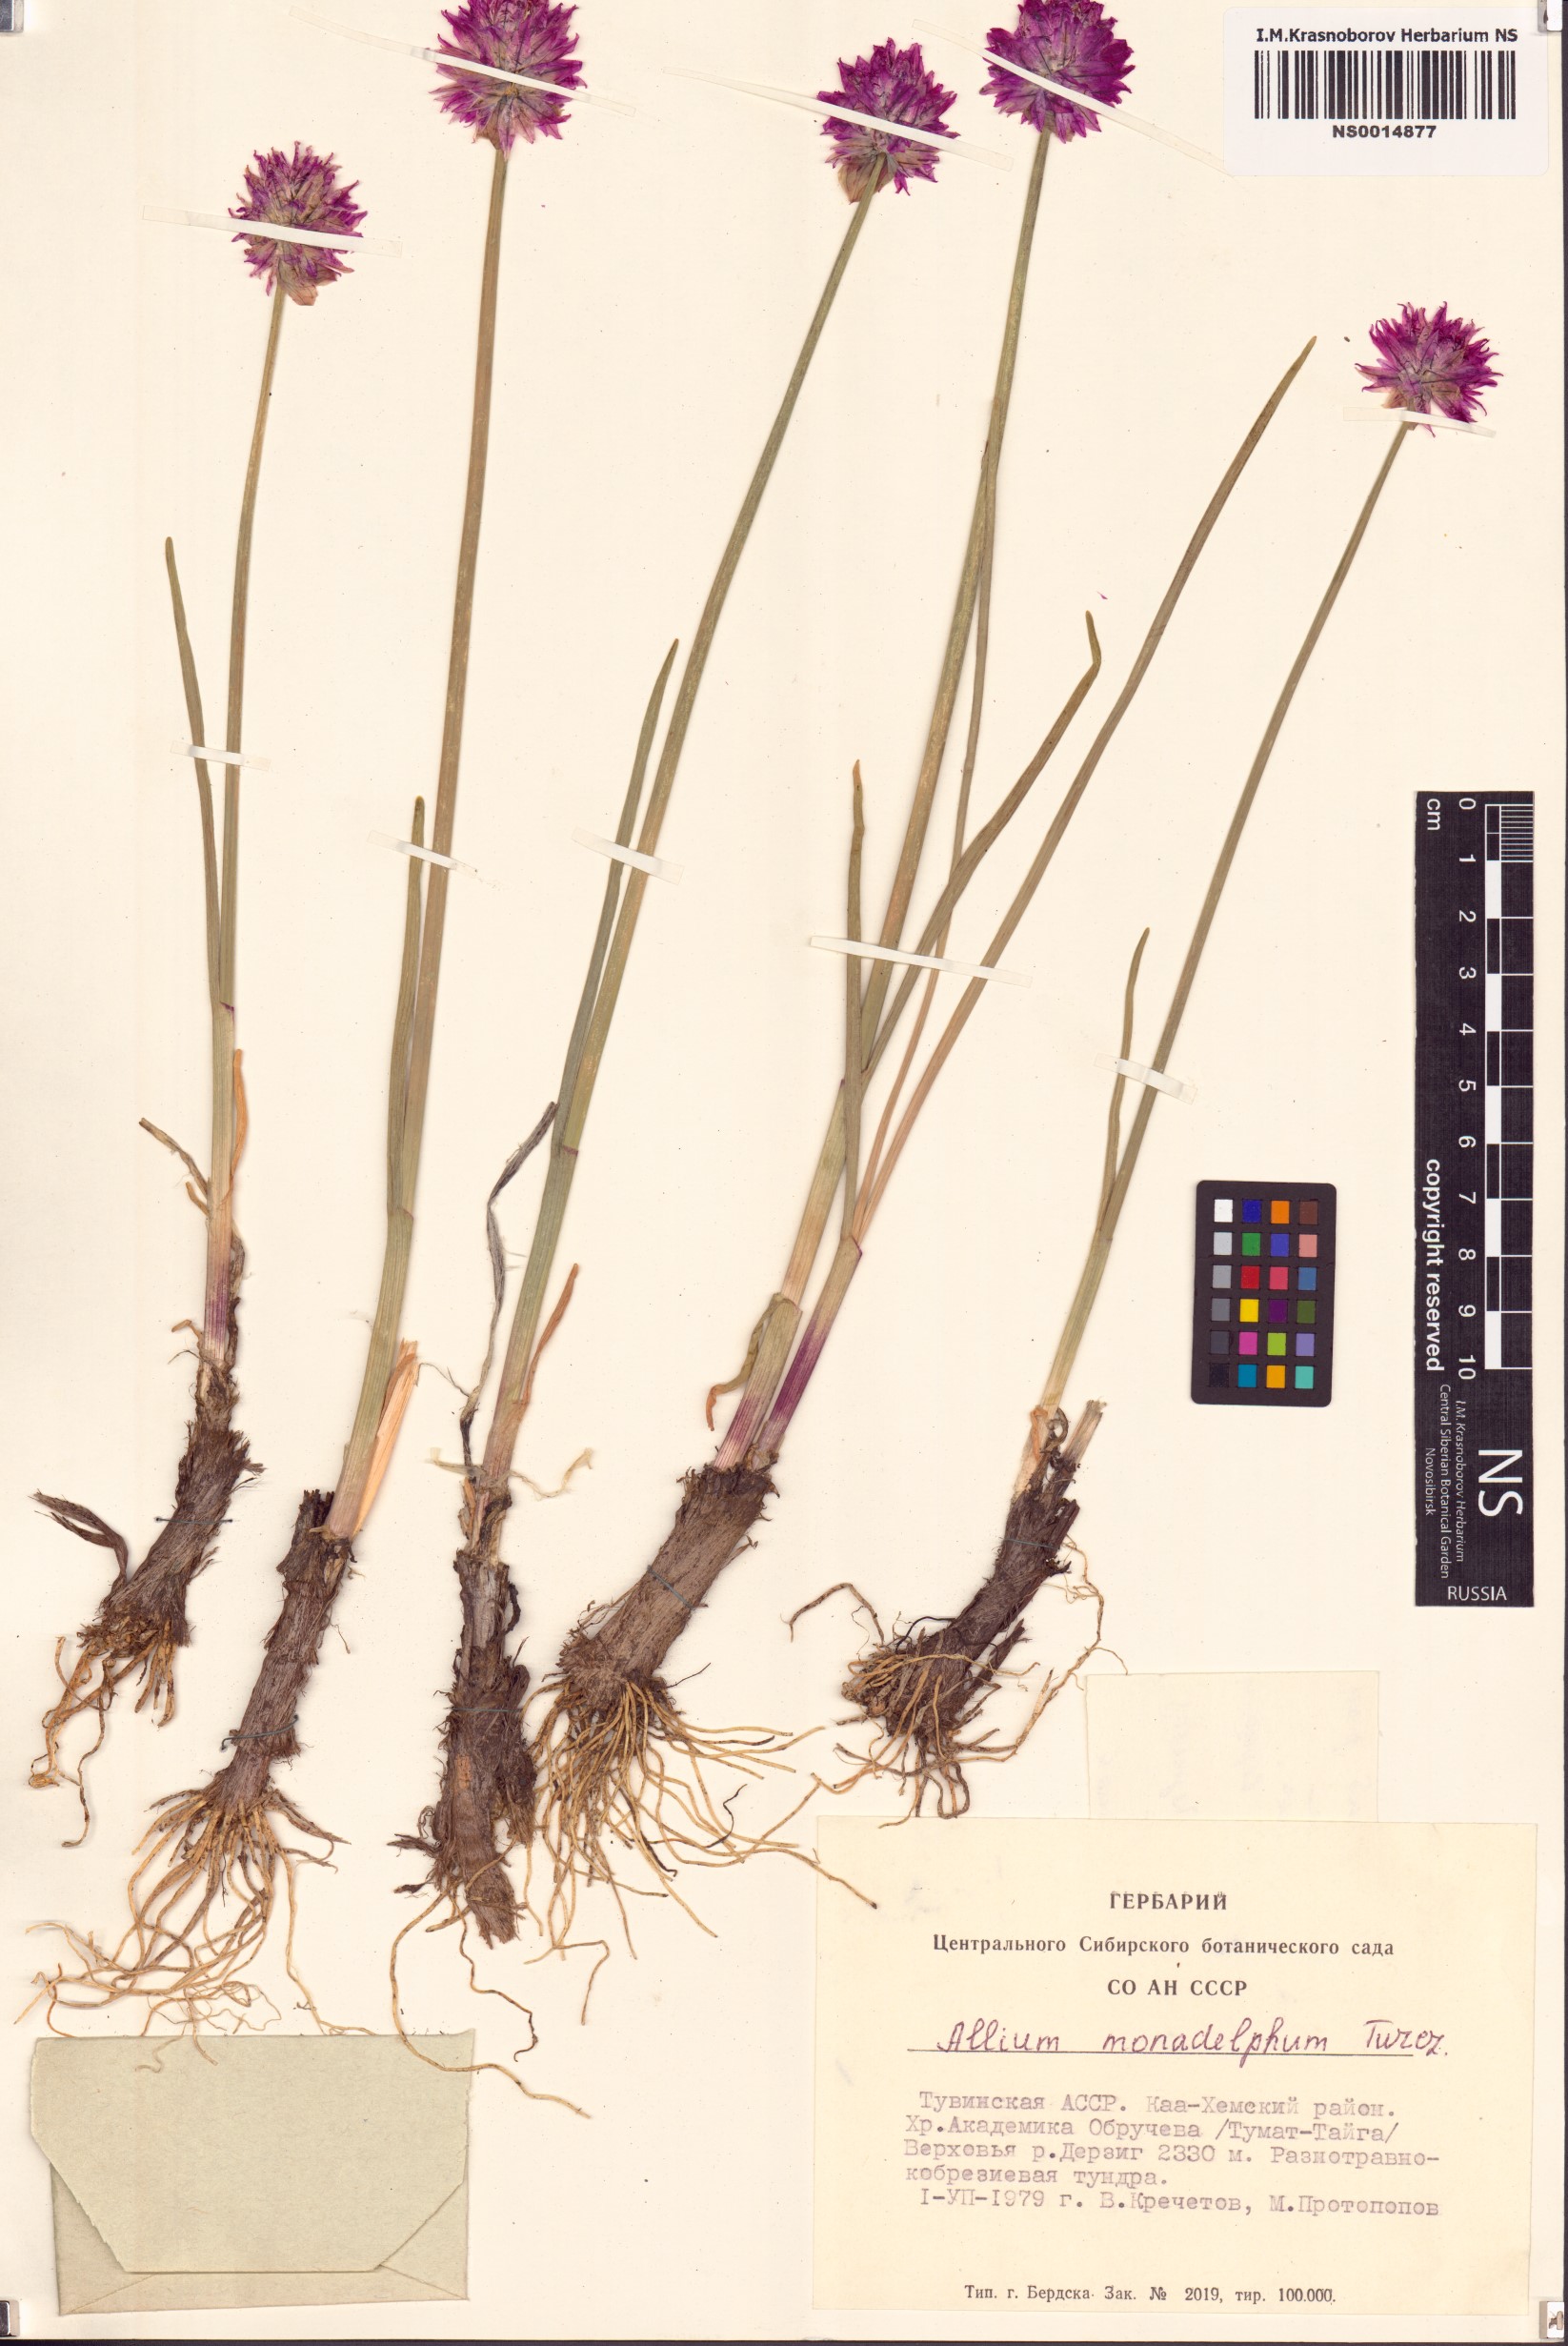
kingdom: Plantae
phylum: Tracheophyta
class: Liliopsida
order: Asparagales
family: Amaryllidaceae
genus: Allium
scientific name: Allium atrosanguineum
